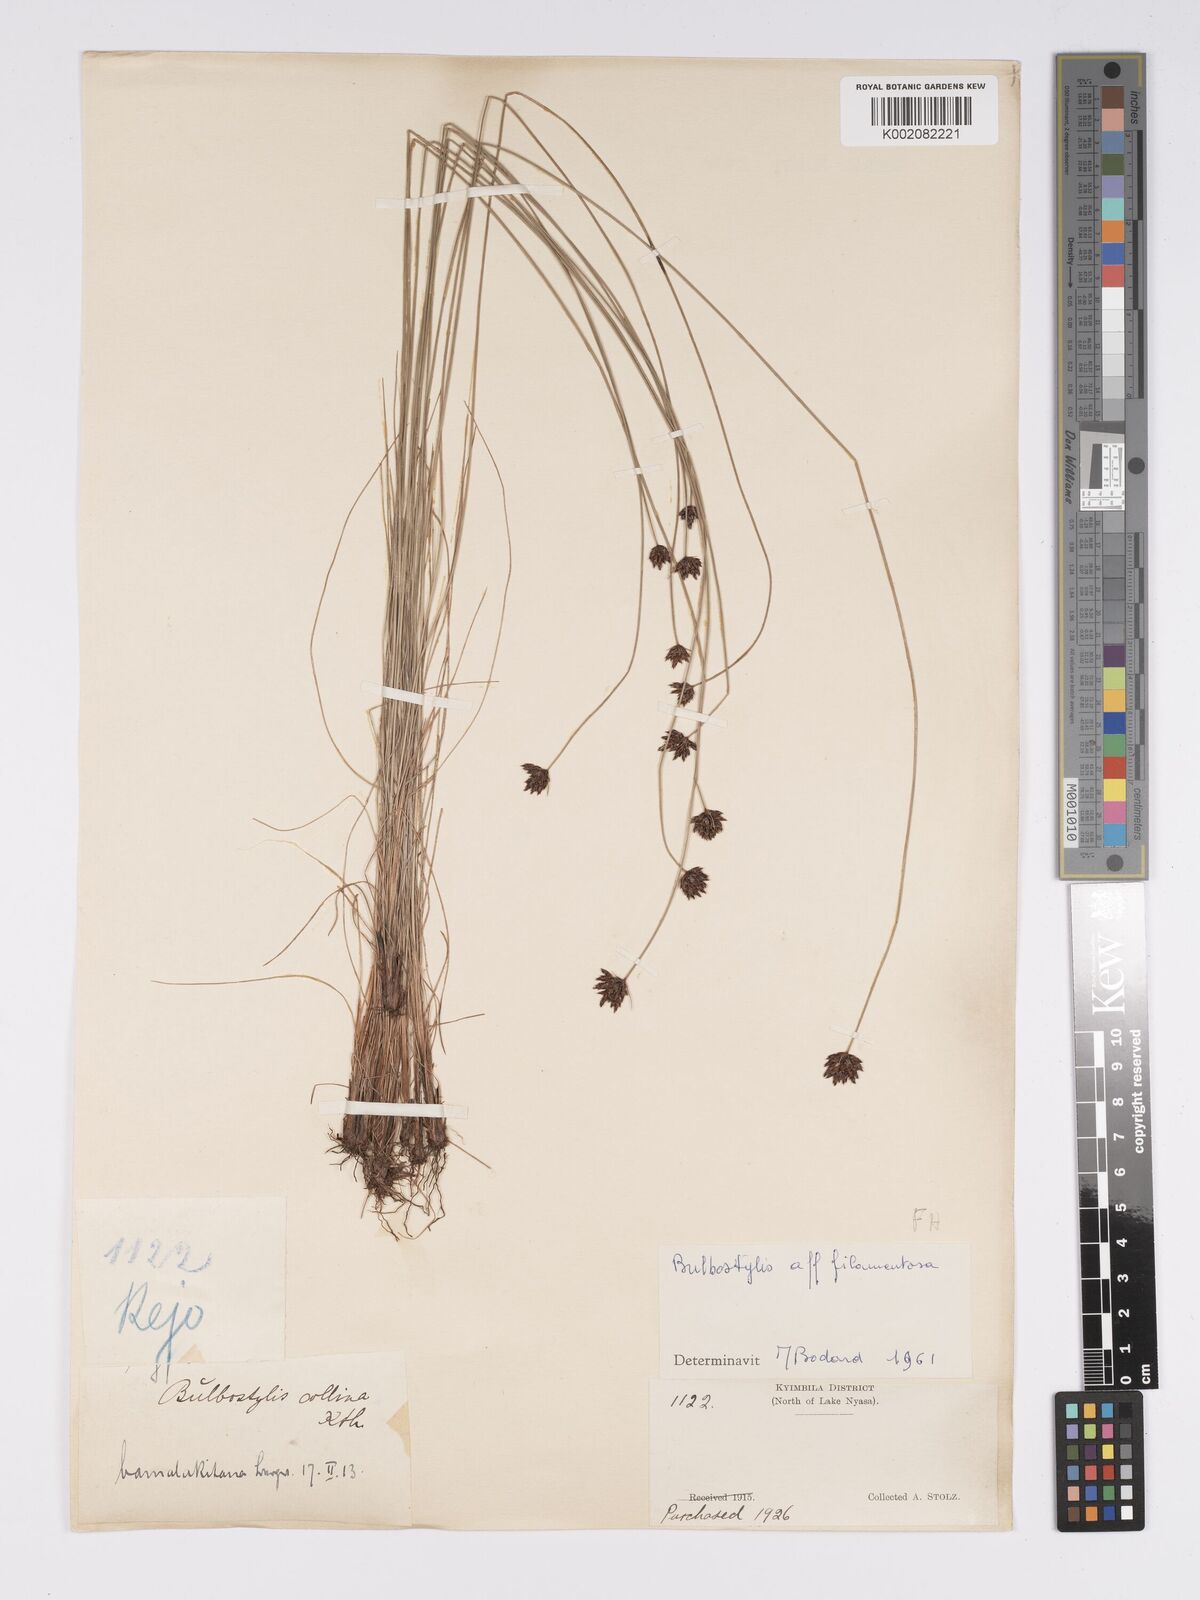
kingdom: Plantae
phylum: Tracheophyta
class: Liliopsida
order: Poales
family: Cyperaceae
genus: Bulbostylis
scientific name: Bulbostylis scabricaulis
